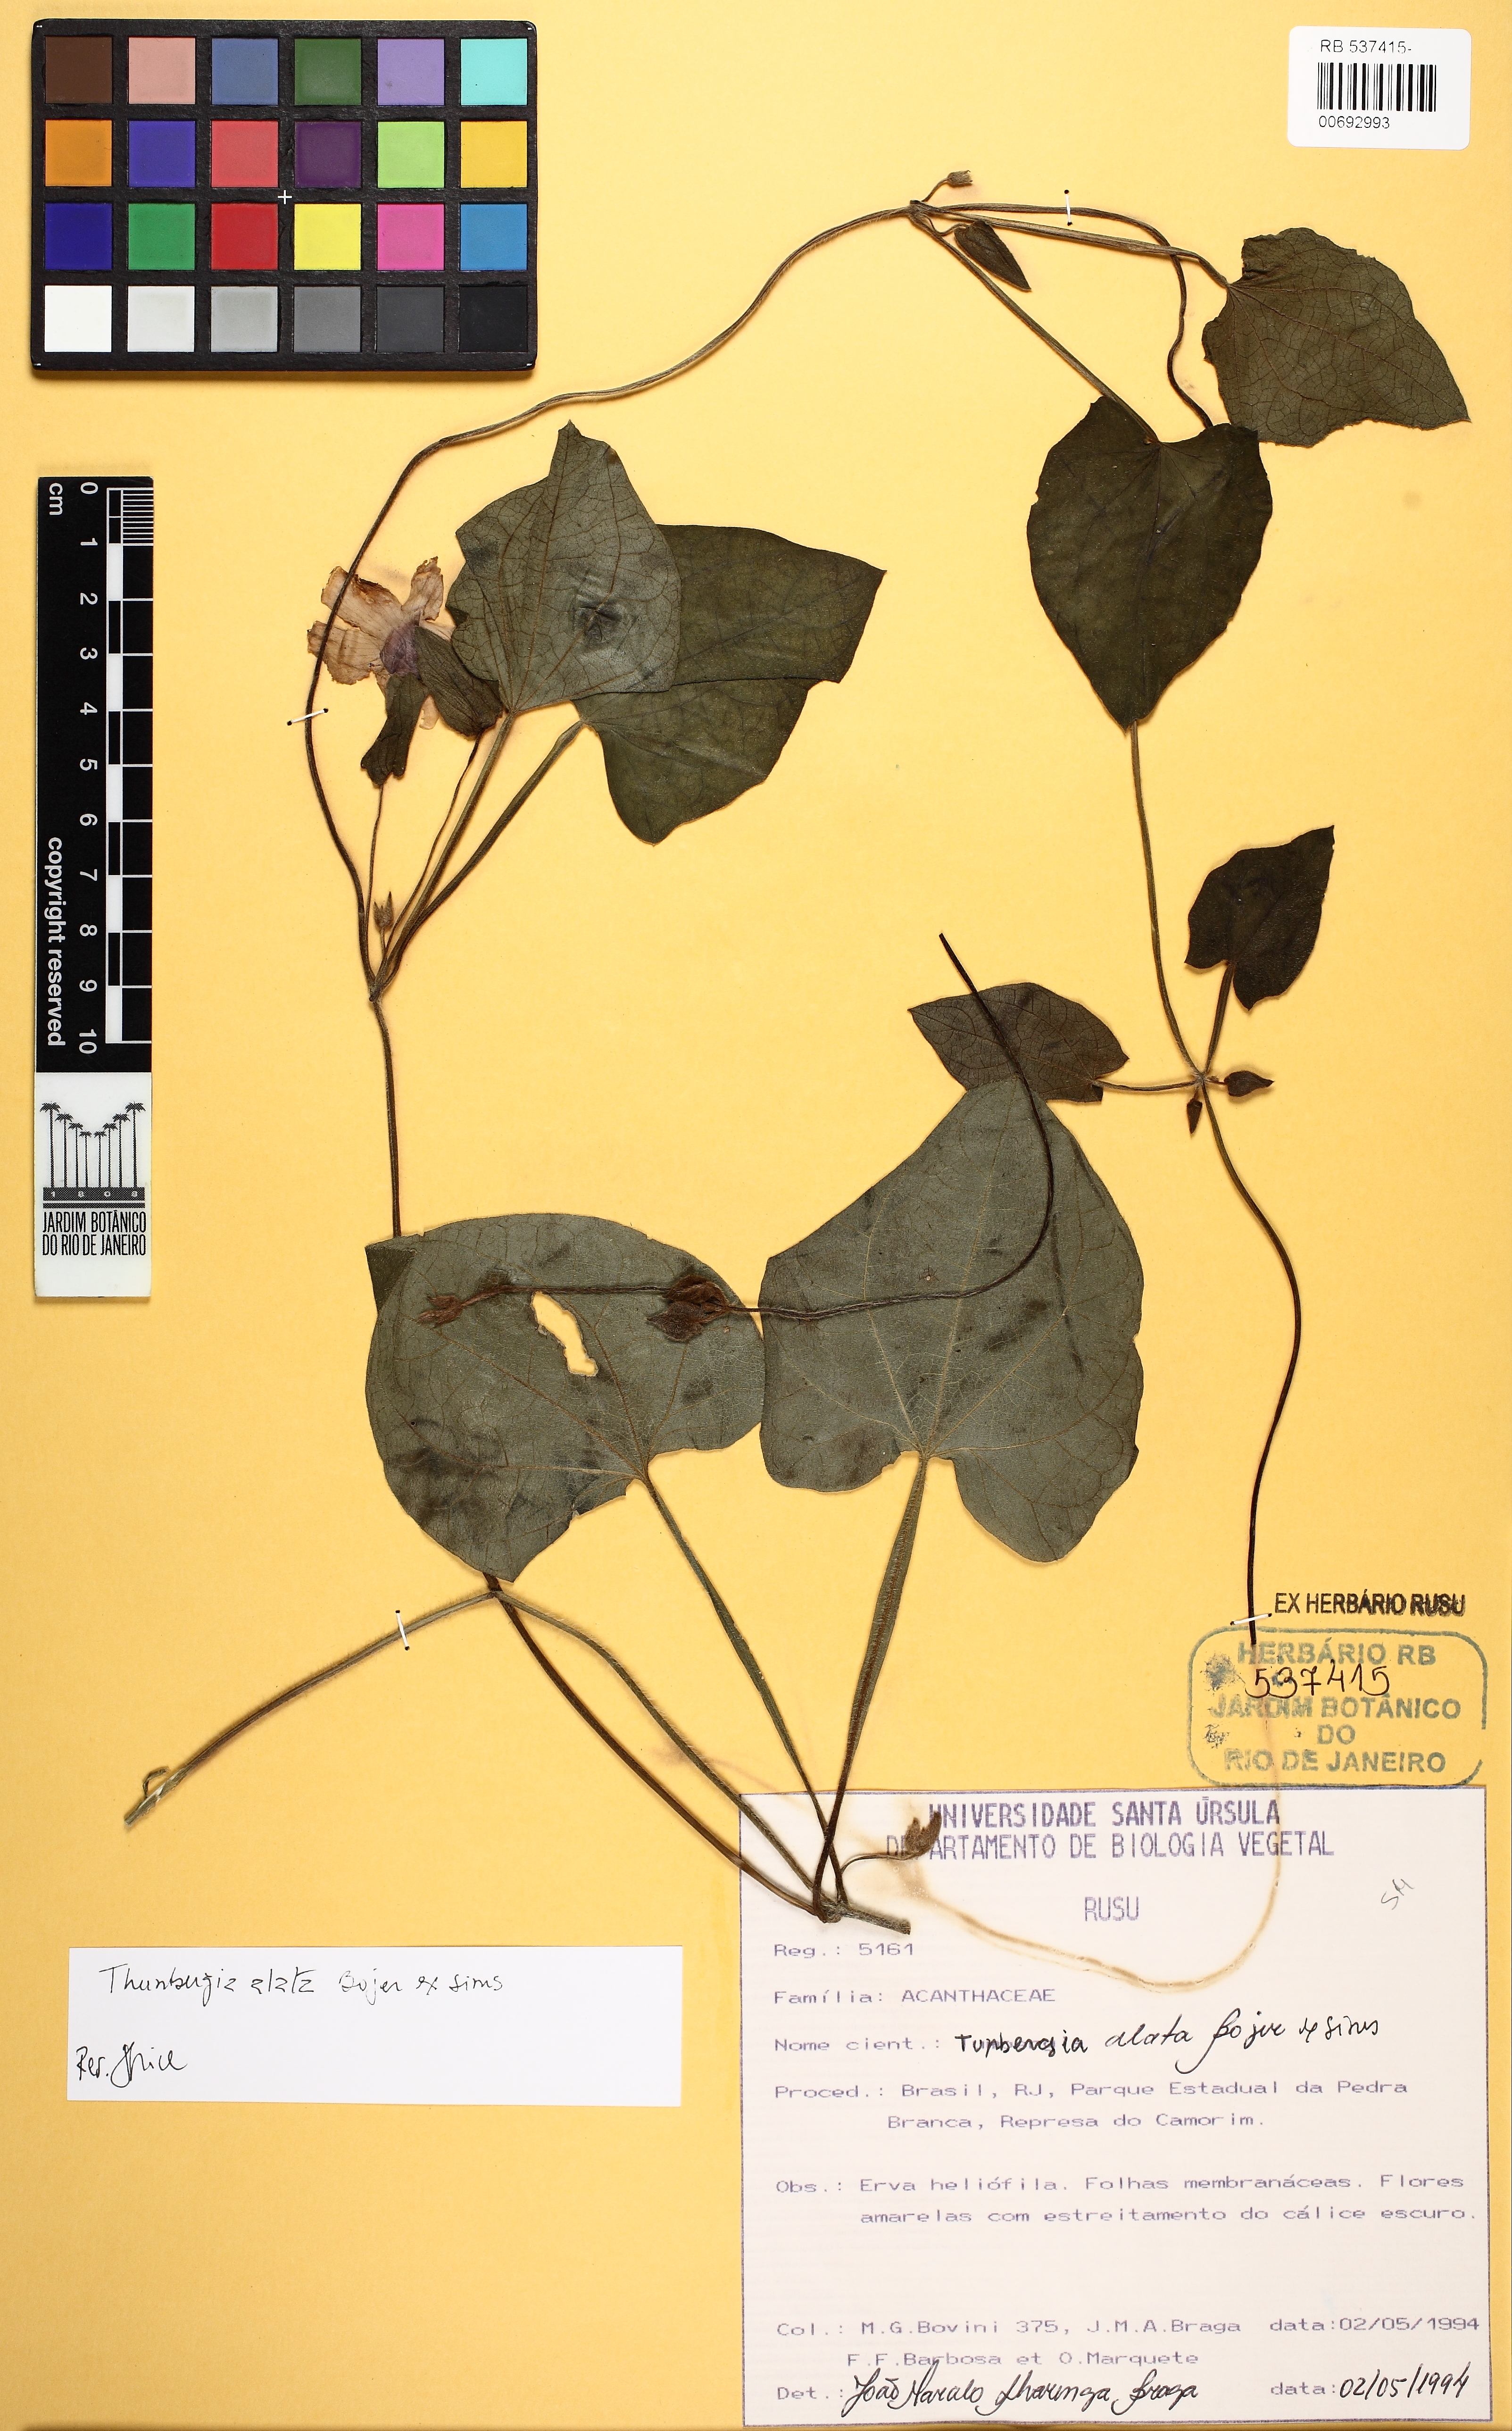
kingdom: Plantae
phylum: Tracheophyta
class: Magnoliopsida
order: Lamiales
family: Acanthaceae
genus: Thunbergia
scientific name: Thunbergia alata
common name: Blackeyed susan vine
